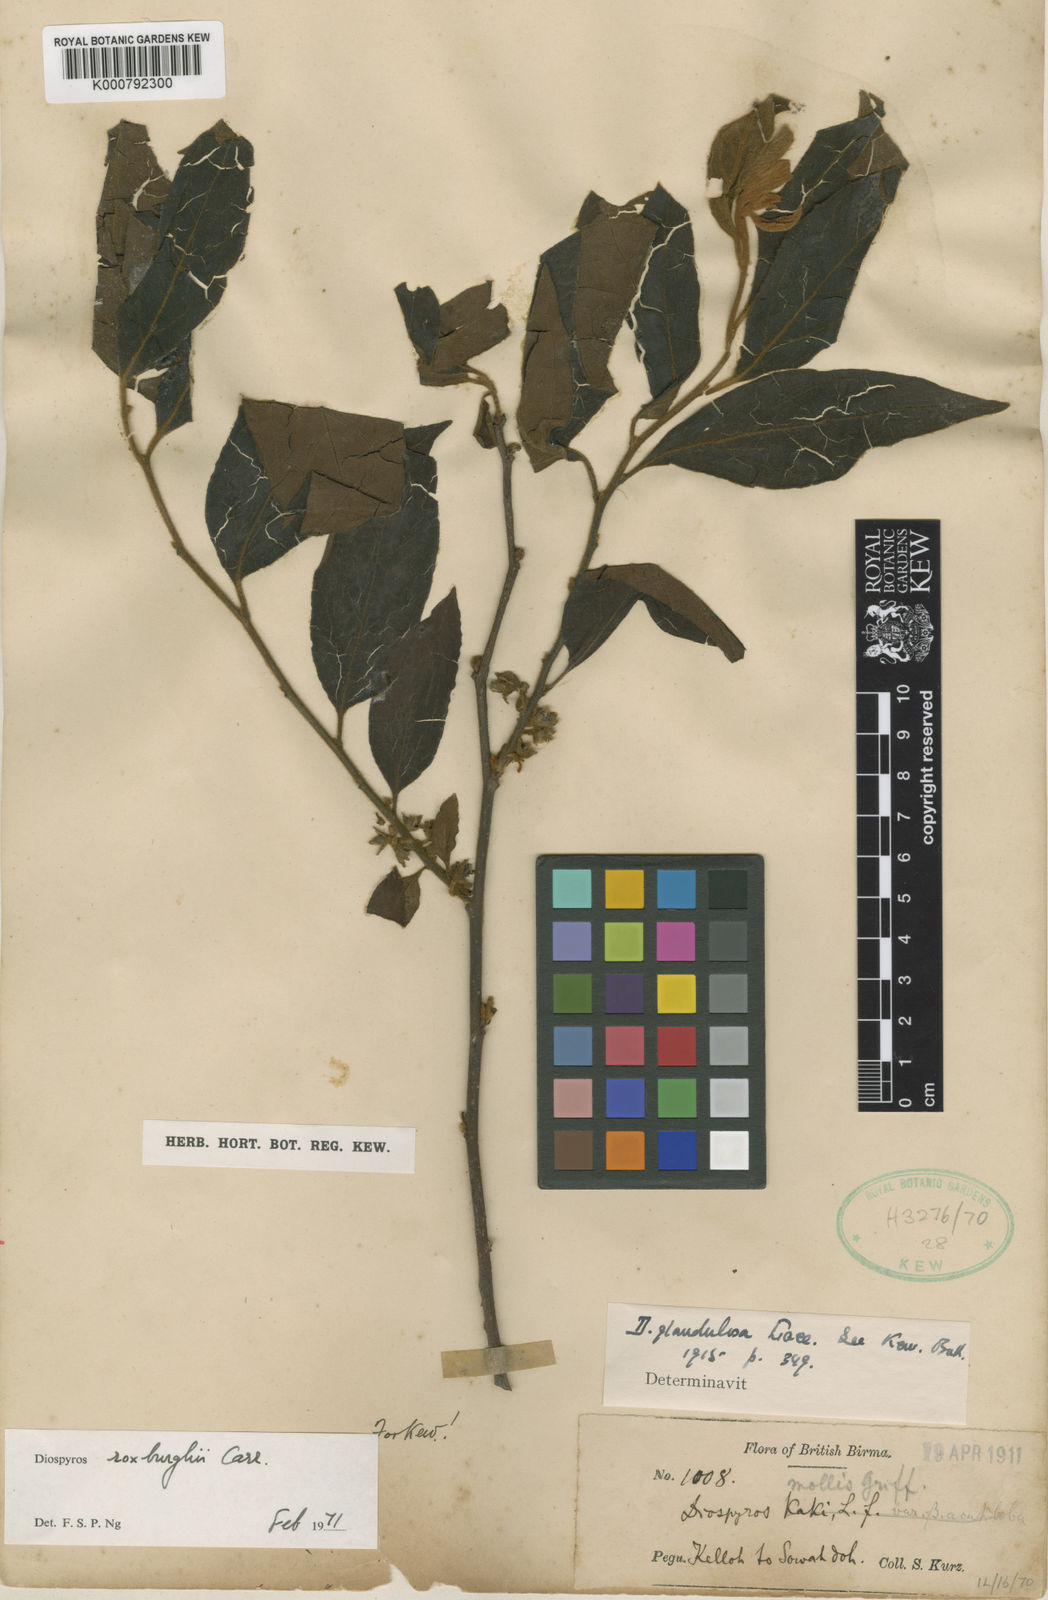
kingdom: Plantae
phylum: Tracheophyta
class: Magnoliopsida
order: Ericales
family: Ebenaceae
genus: Diospyros
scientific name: Diospyros
